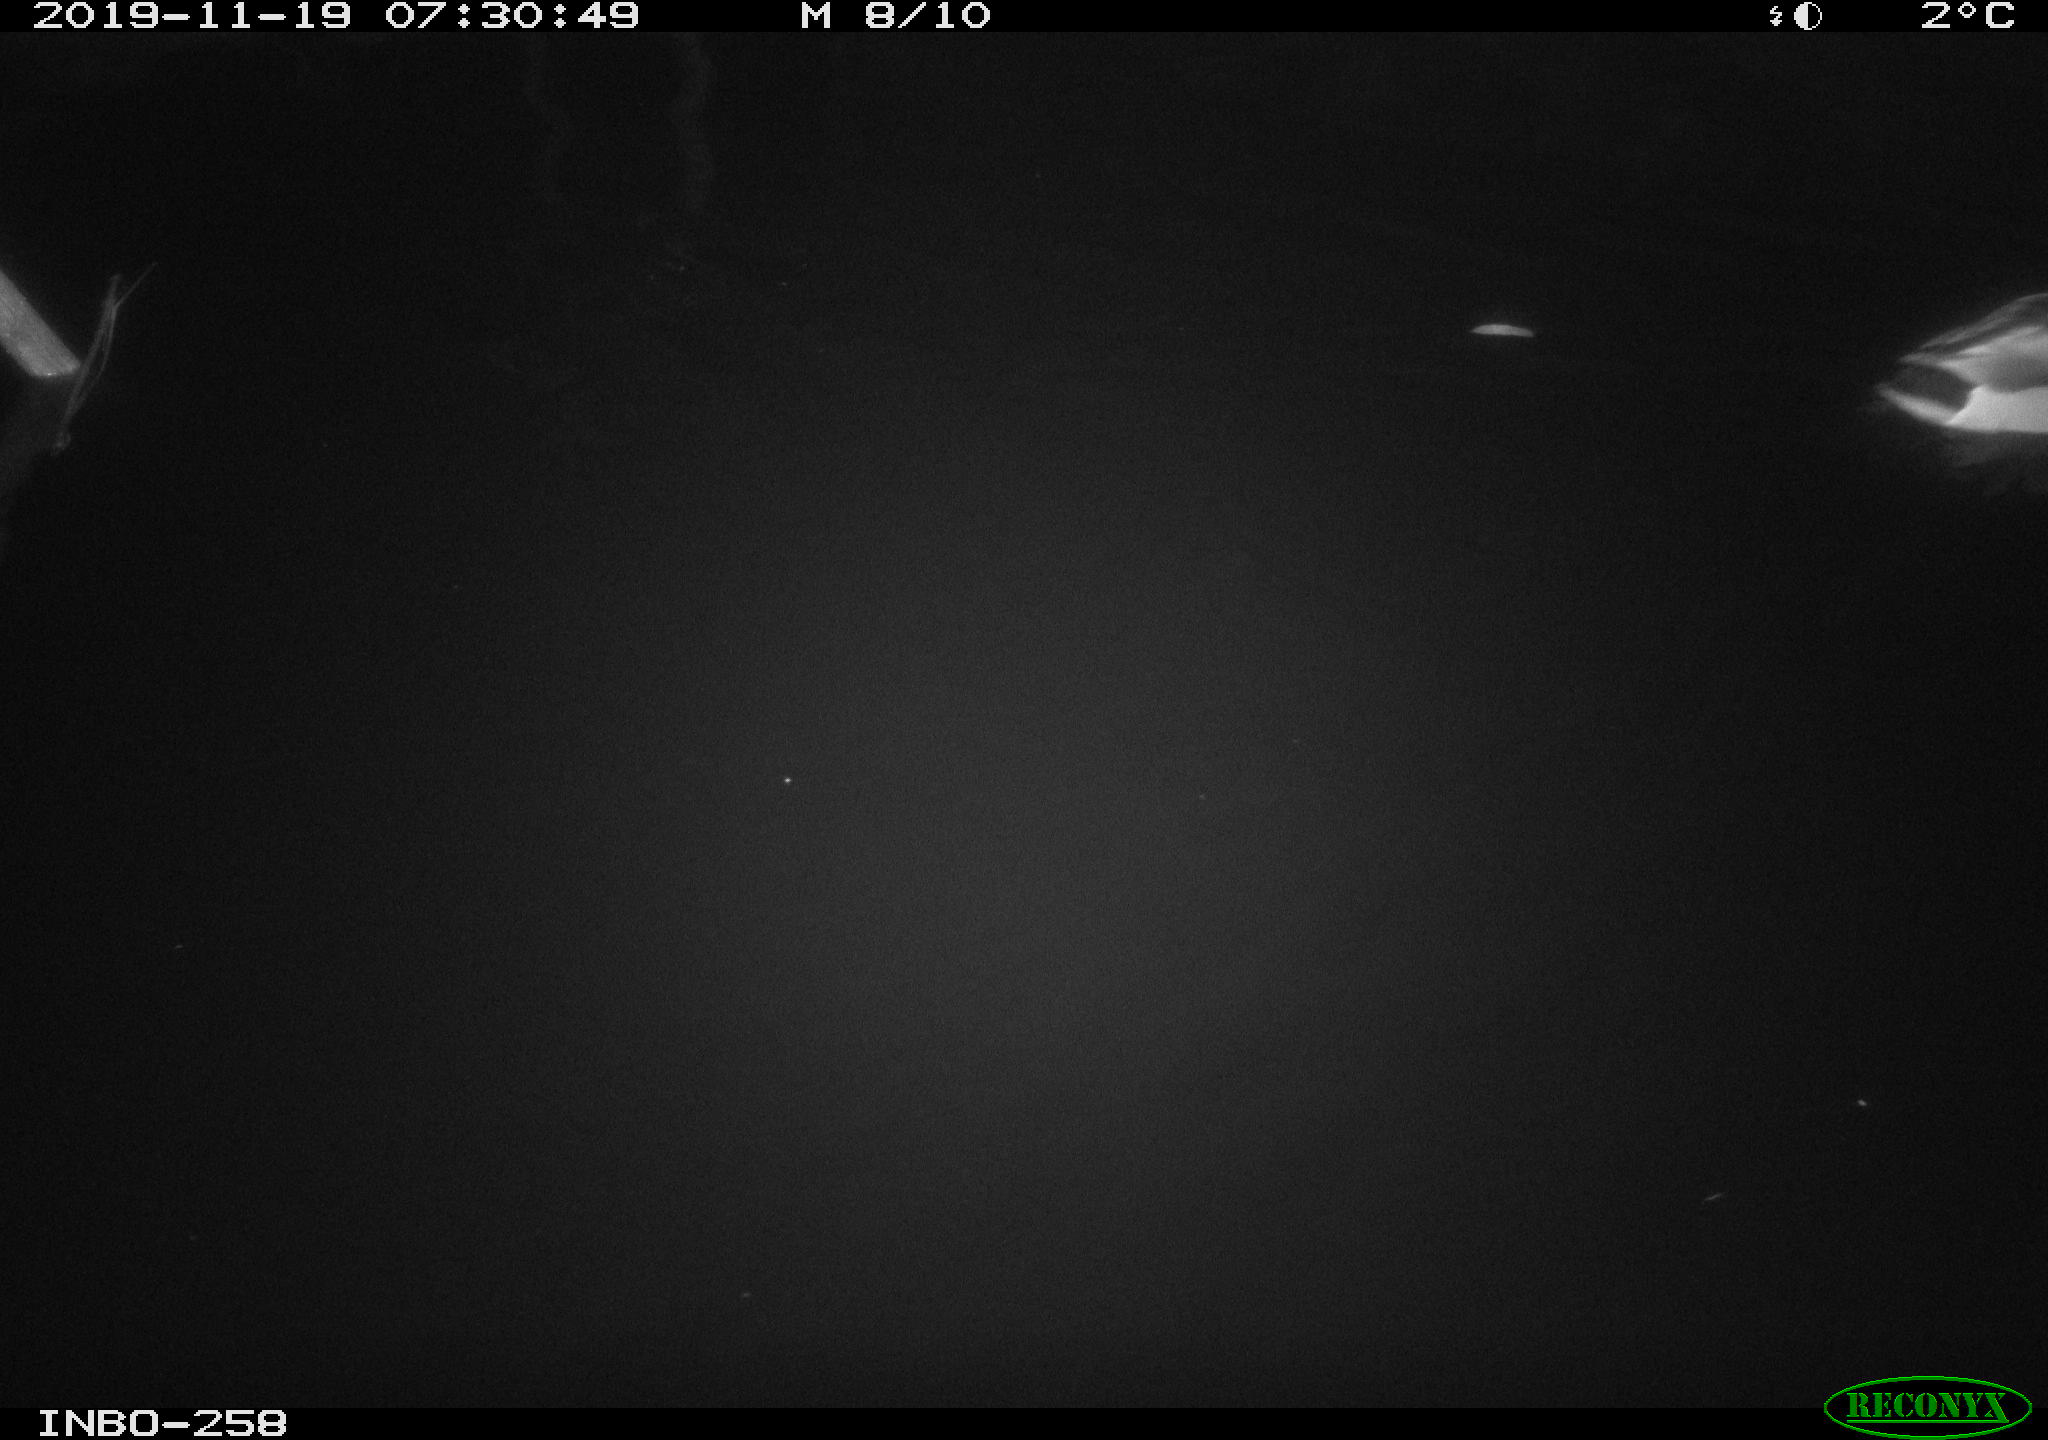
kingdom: Animalia
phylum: Chordata
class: Aves
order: Anseriformes
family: Anatidae
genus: Anas
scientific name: Anas platyrhynchos
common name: Mallard
